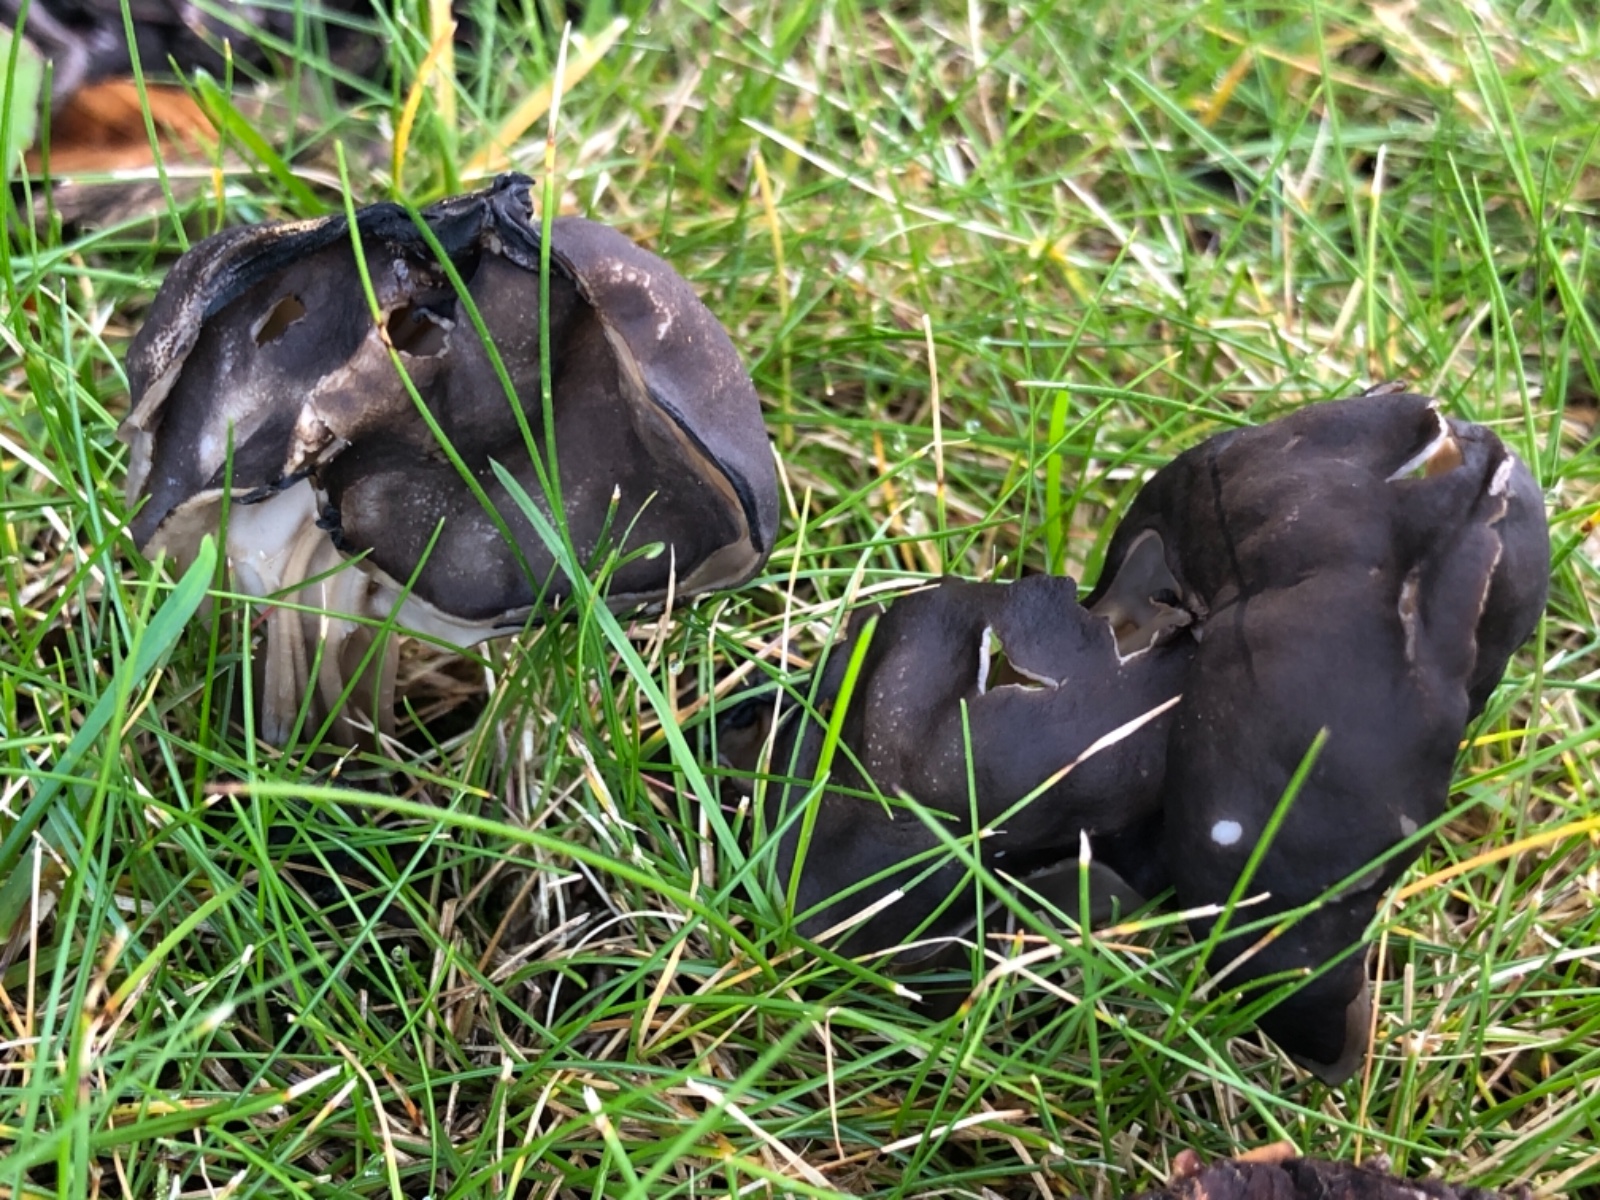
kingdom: Fungi
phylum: Ascomycota
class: Pezizomycetes
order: Pezizales
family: Helvellaceae
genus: Helvella
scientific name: Helvella lacunosa
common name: grubet foldhat
